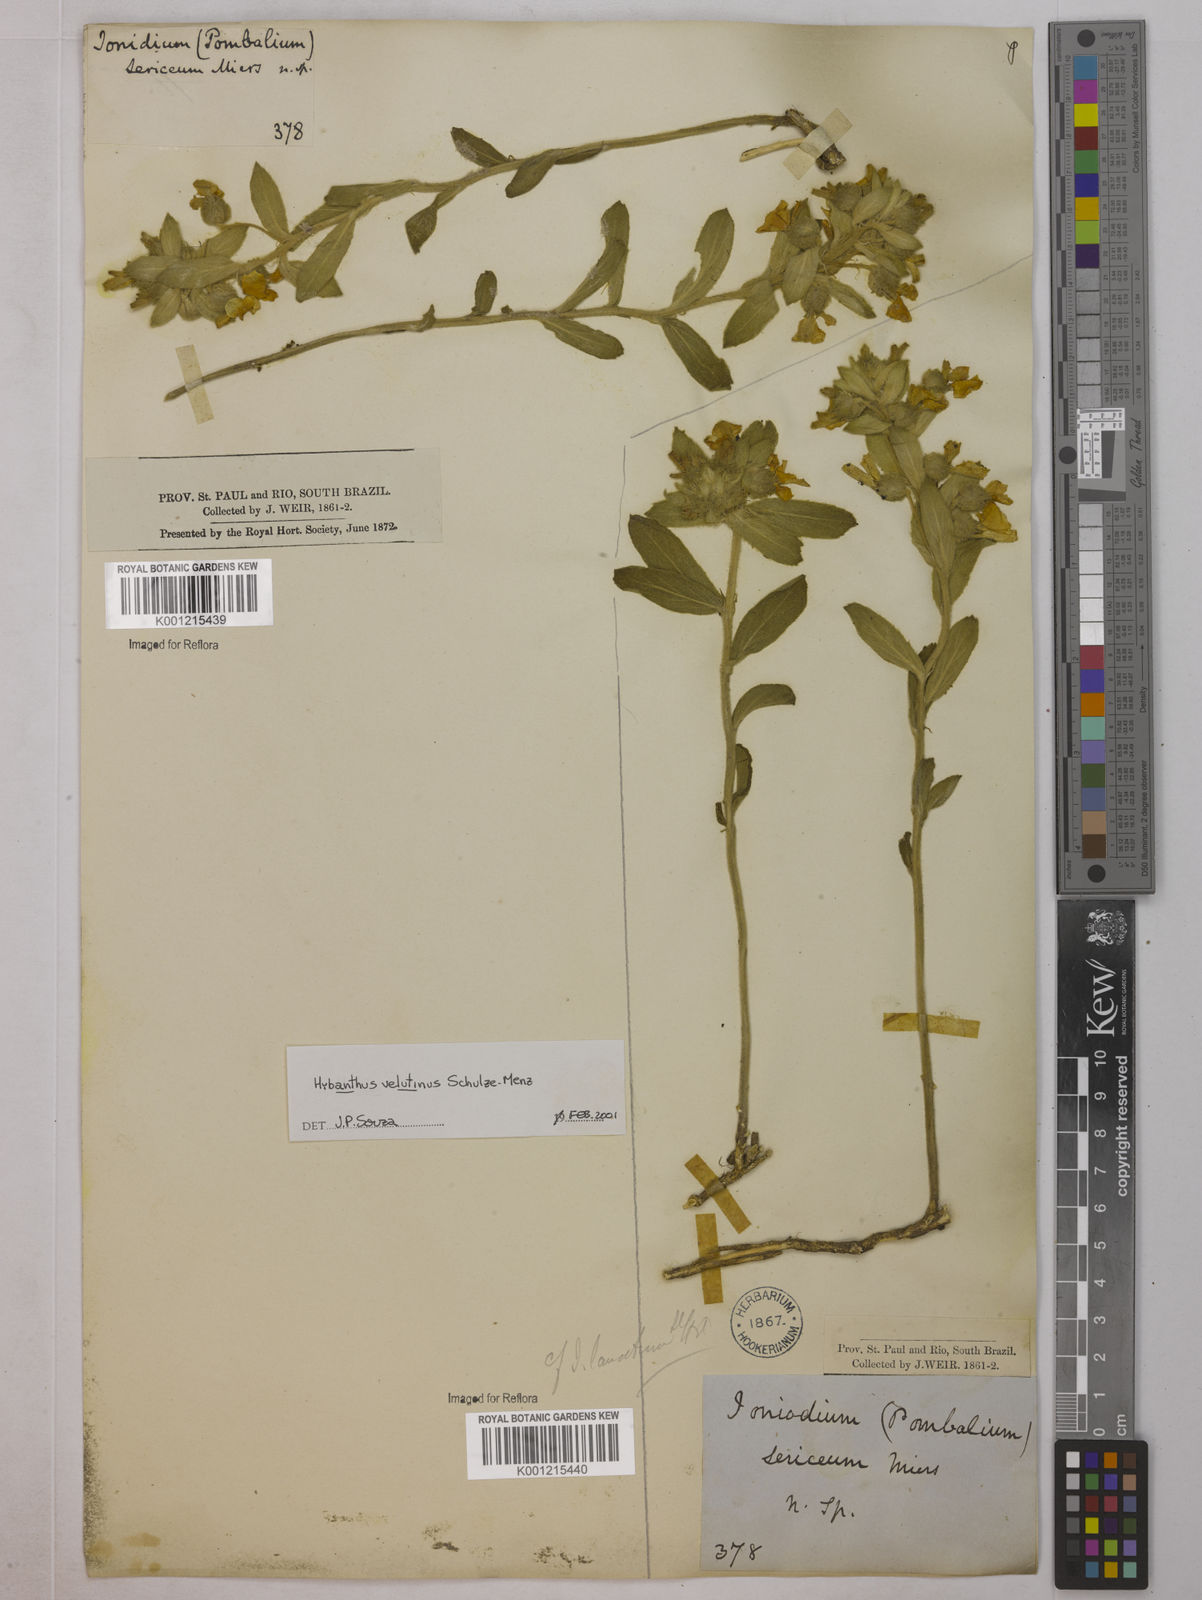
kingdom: Plantae
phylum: Tracheophyta
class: Magnoliopsida
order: Malpighiales
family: Violaceae
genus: Pombalia
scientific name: Pombalia velutina
